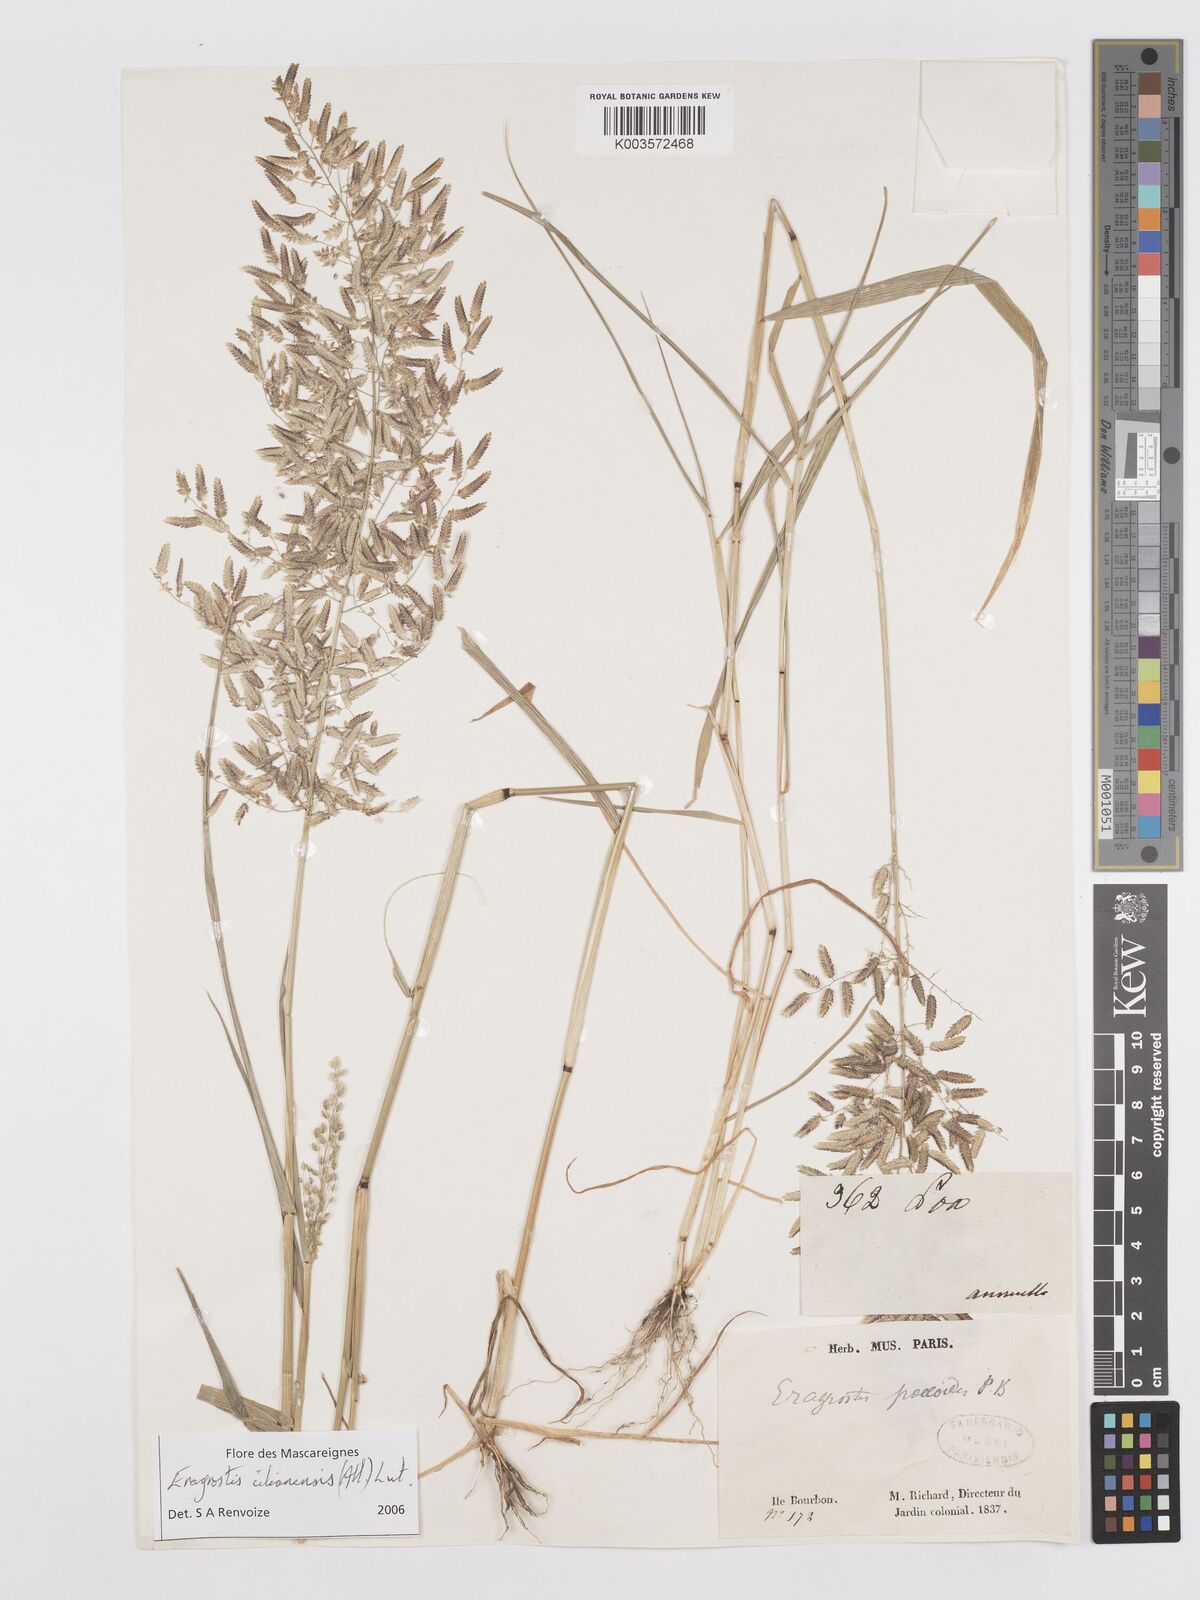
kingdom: Plantae
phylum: Tracheophyta
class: Liliopsida
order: Poales
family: Poaceae
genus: Eragrostis
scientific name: Eragrostis cilianensis
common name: Stinkgrass
